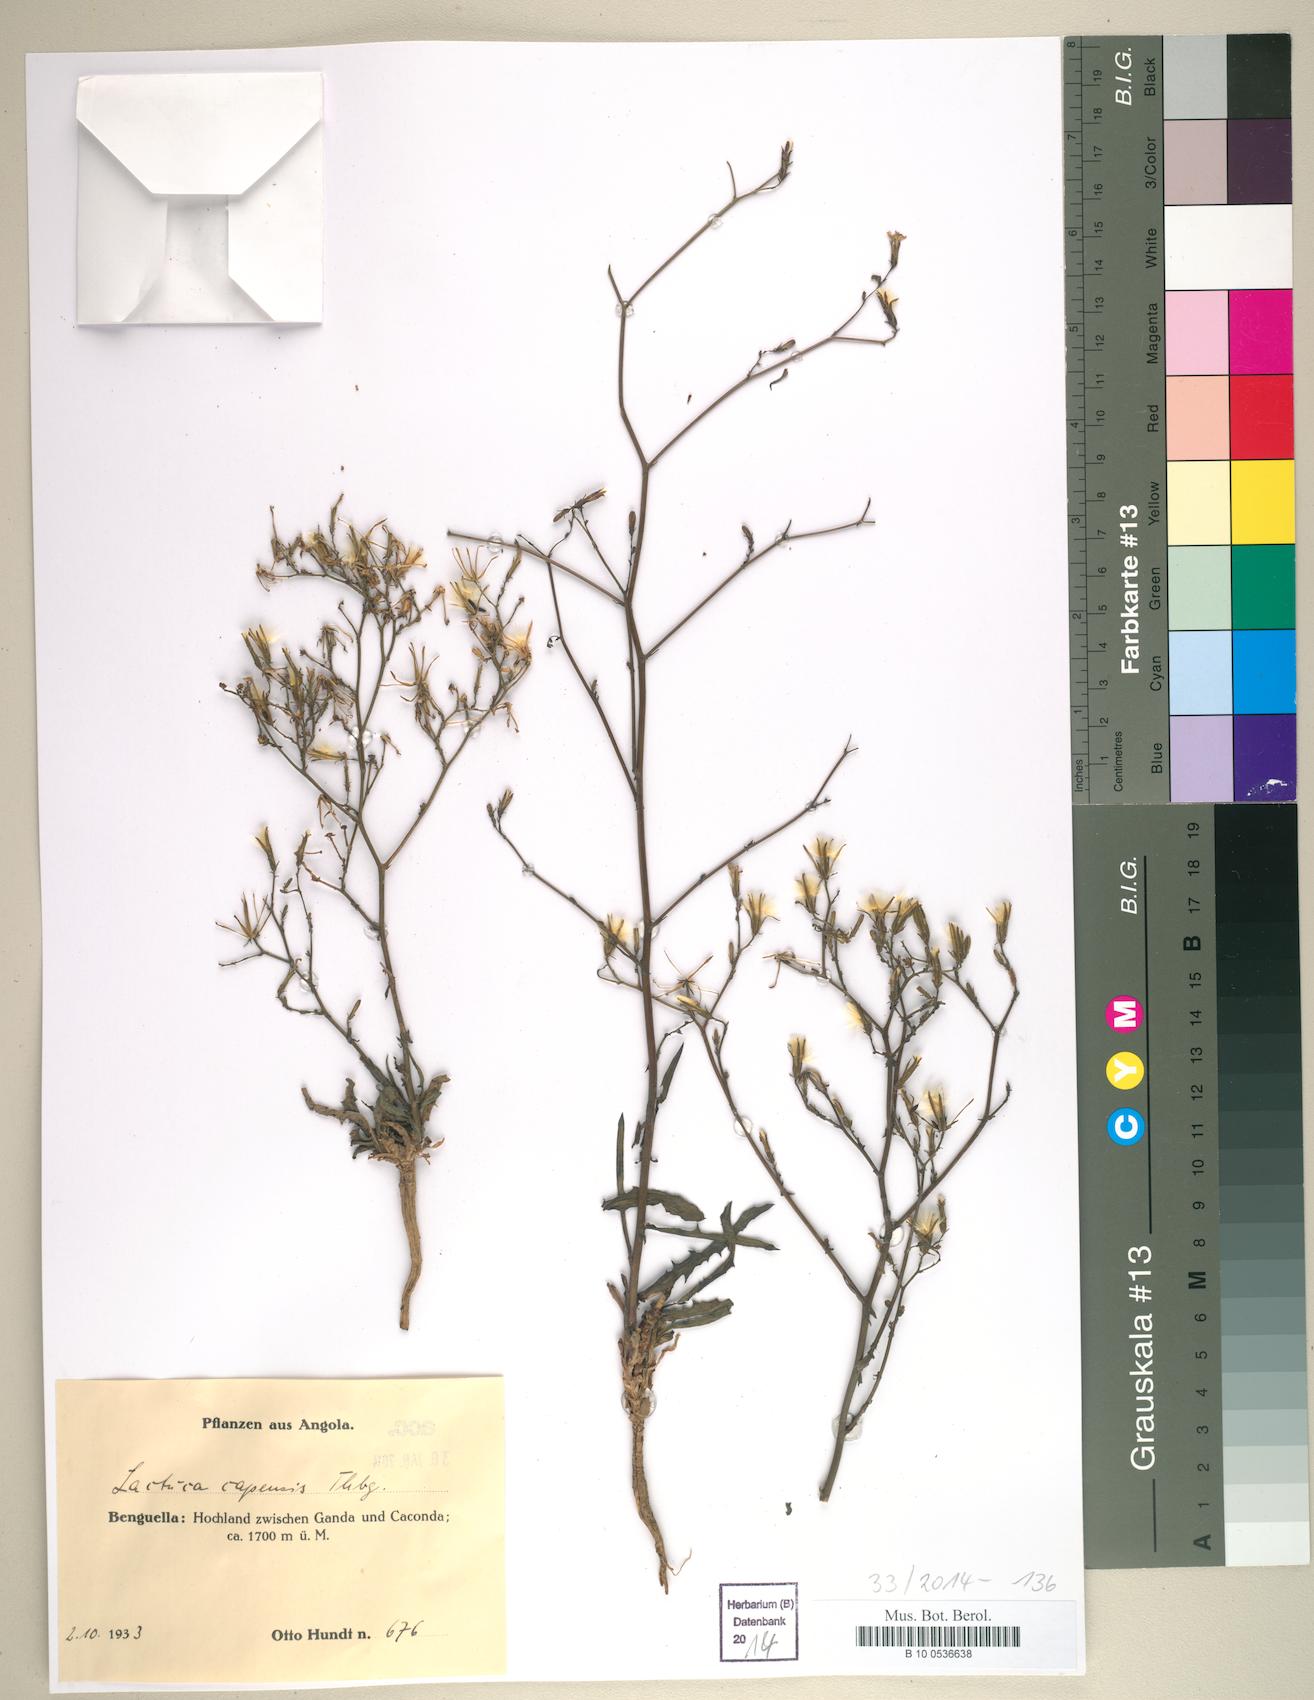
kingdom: Plantae
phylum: Tracheophyta
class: Magnoliopsida
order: Asterales
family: Asteraceae
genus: Lactuca
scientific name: Lactuca inermis
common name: Wild lettuce
